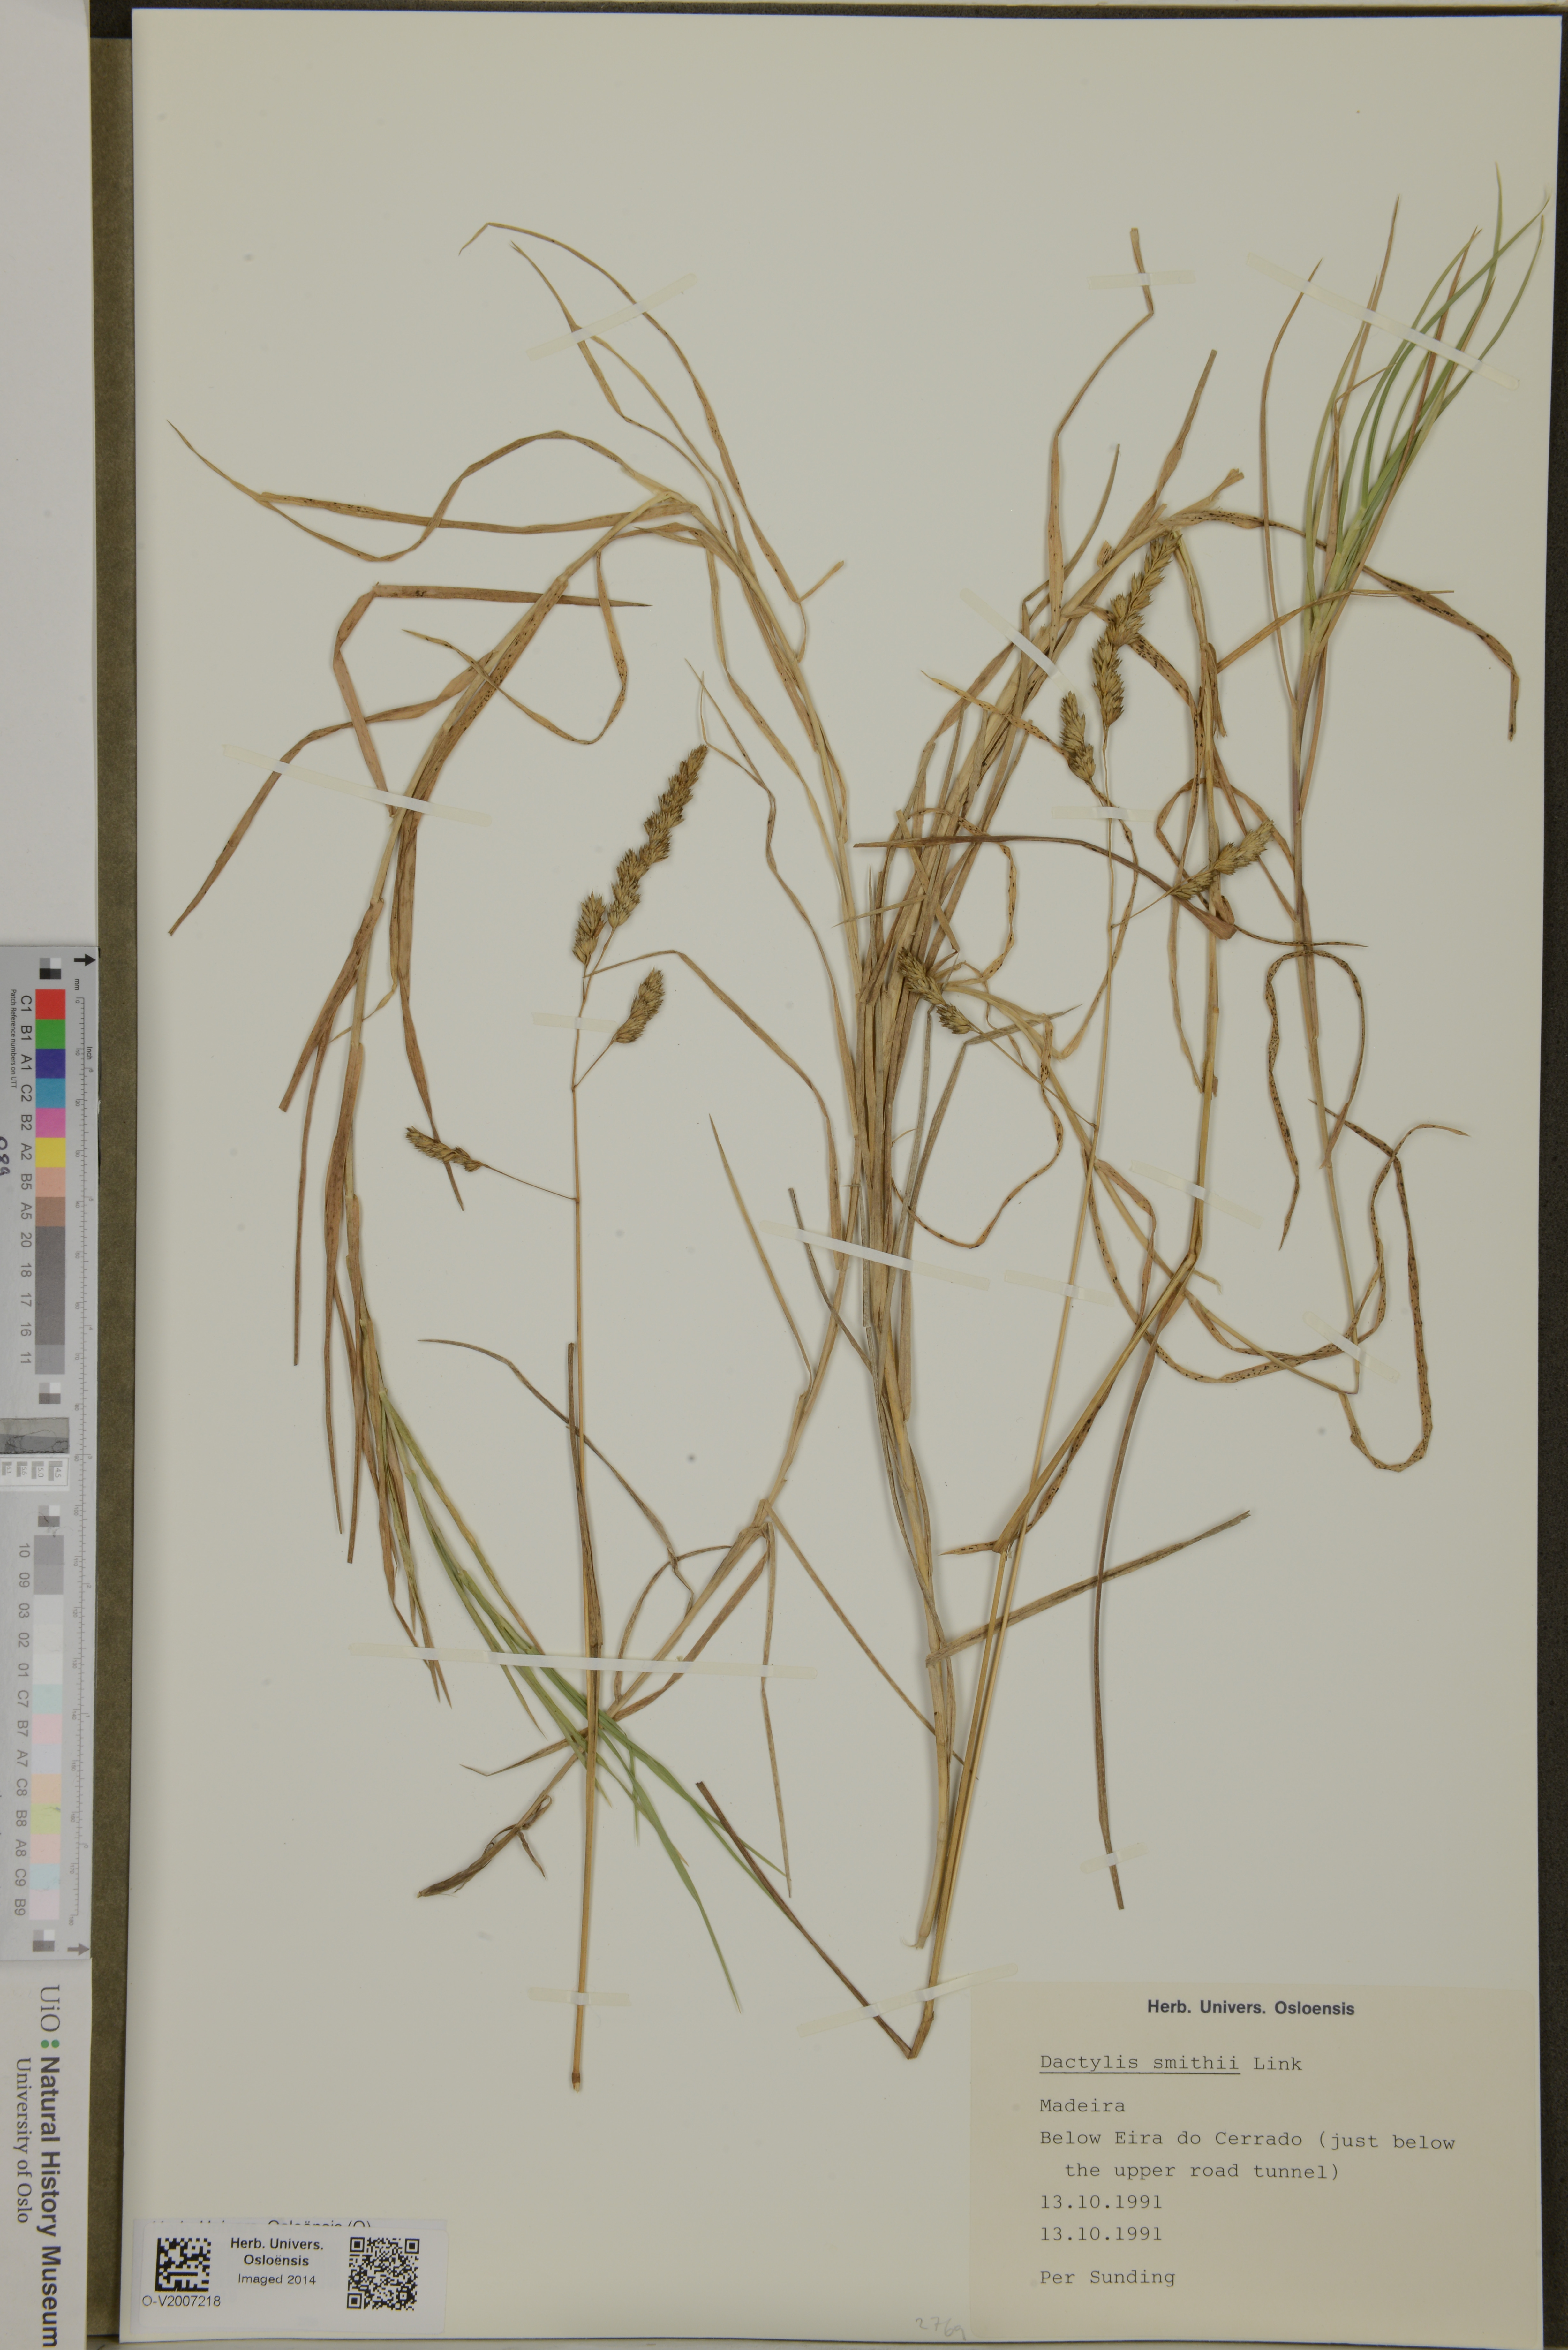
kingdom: Plantae
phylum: Tracheophyta
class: Liliopsida
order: Poales
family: Poaceae
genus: Dactylis
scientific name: Dactylis smithii
